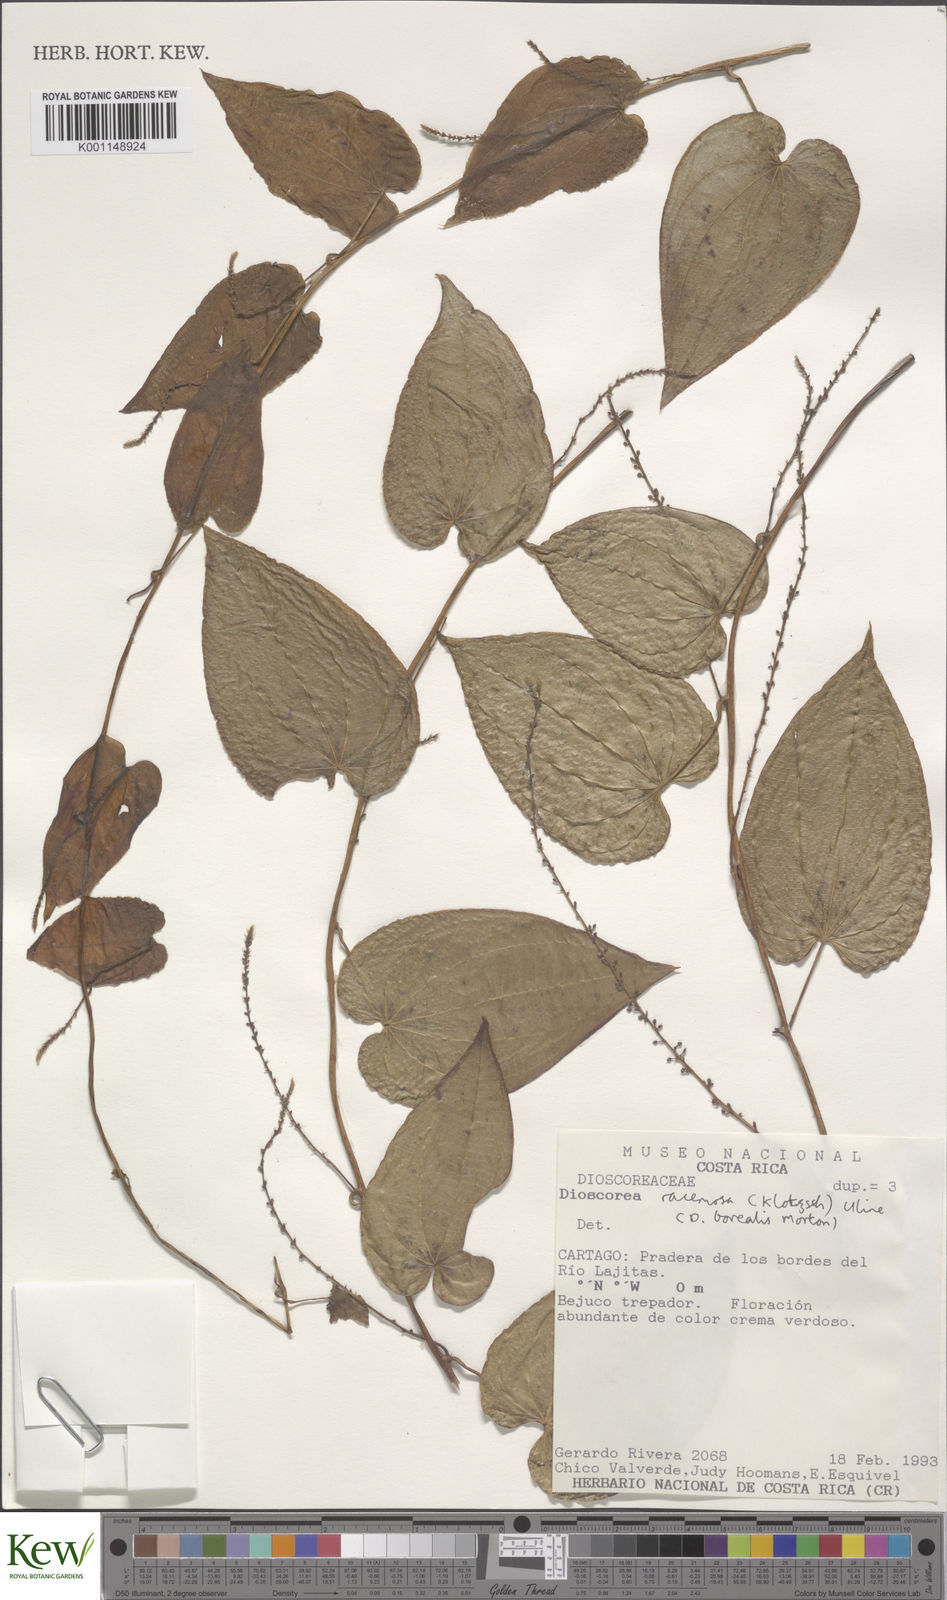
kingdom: Plantae
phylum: Tracheophyta
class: Liliopsida
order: Dioscoreales
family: Dioscoreaceae
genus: Dioscorea
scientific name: Dioscorea
